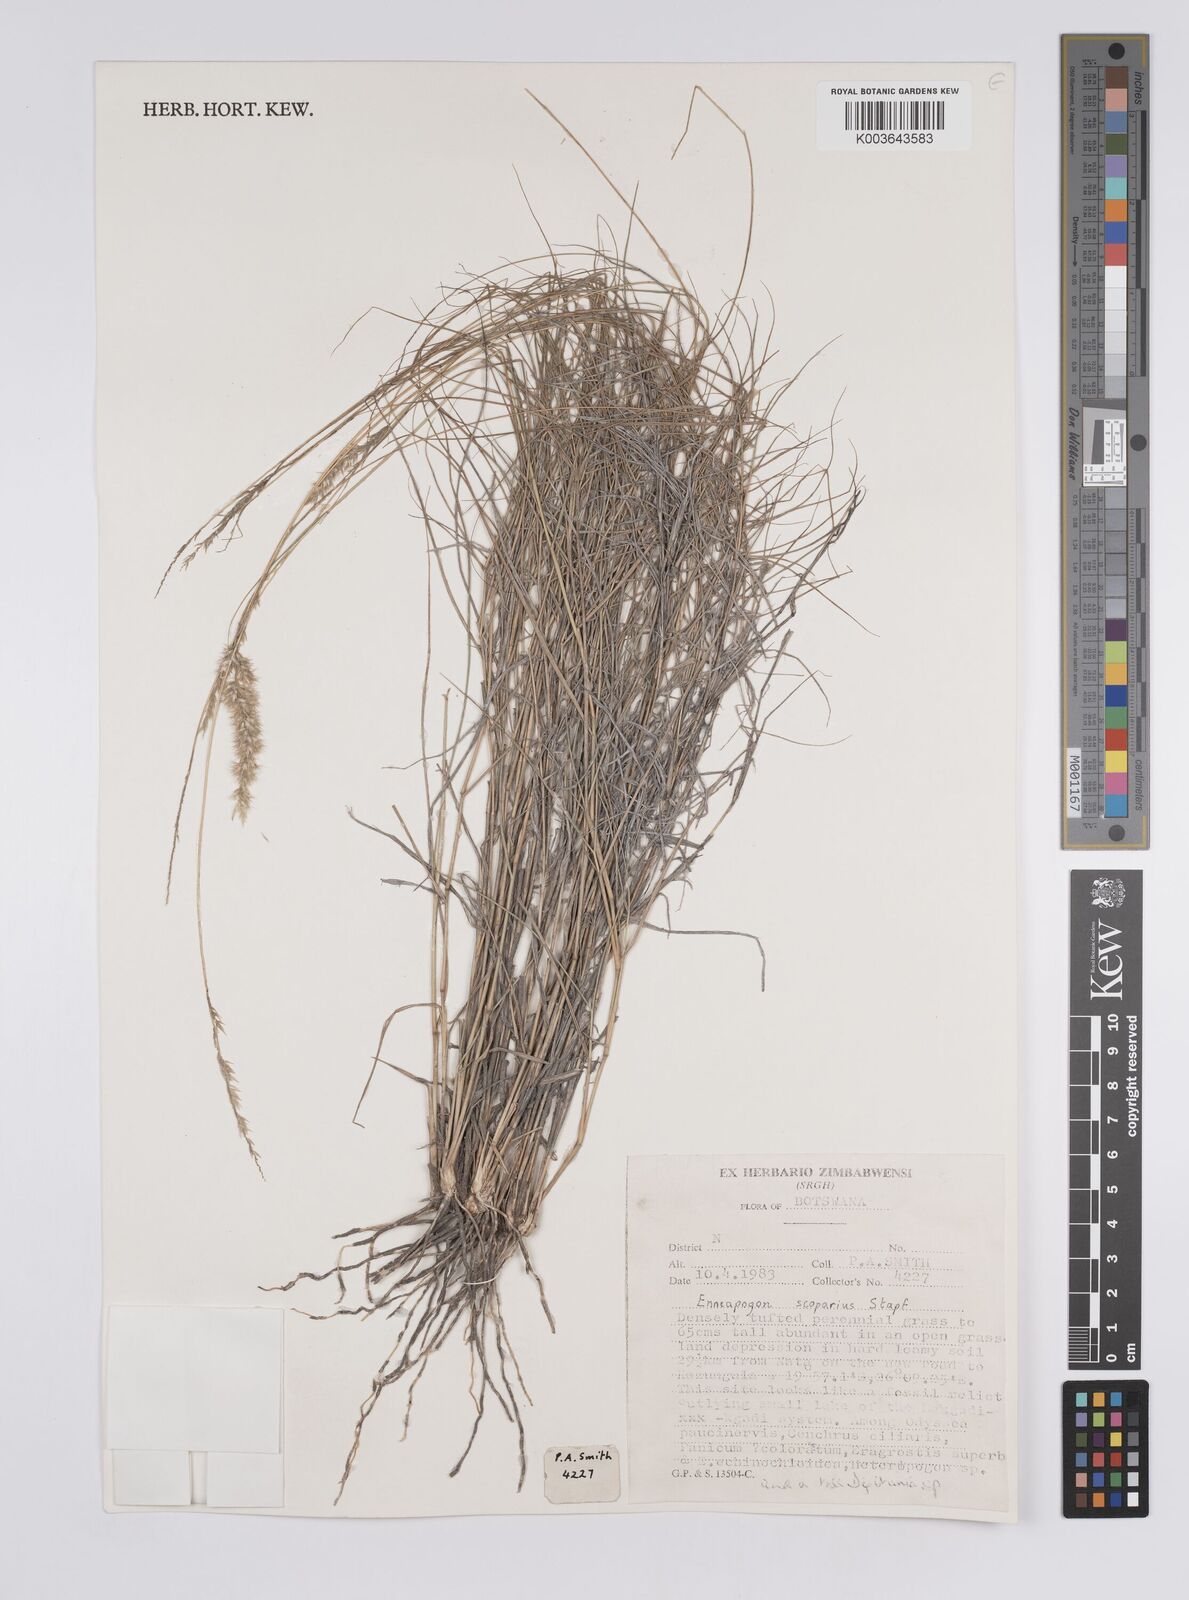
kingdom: Plantae
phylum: Tracheophyta
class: Liliopsida
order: Poales
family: Poaceae
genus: Enneapogon
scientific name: Enneapogon scoparius
